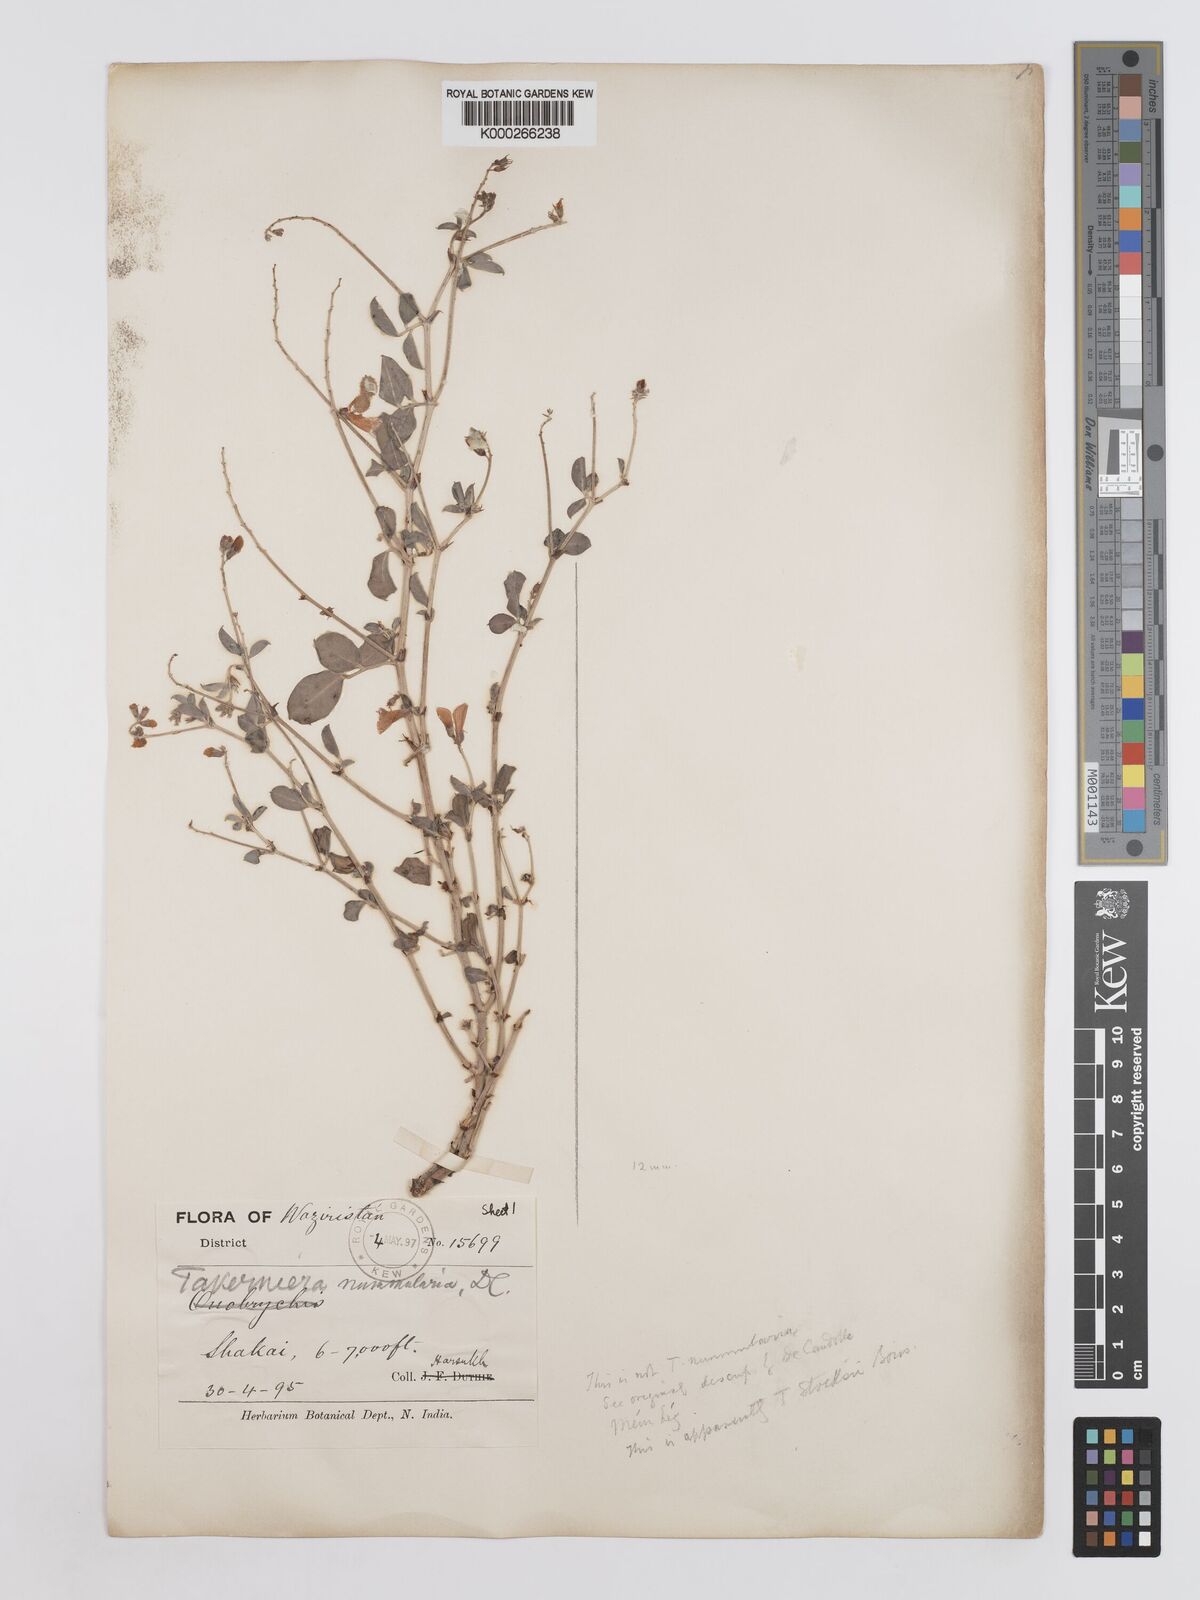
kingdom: Plantae
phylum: Tracheophyta
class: Magnoliopsida
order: Fabales
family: Fabaceae
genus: Taverniera
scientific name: Taverniera nummularia
